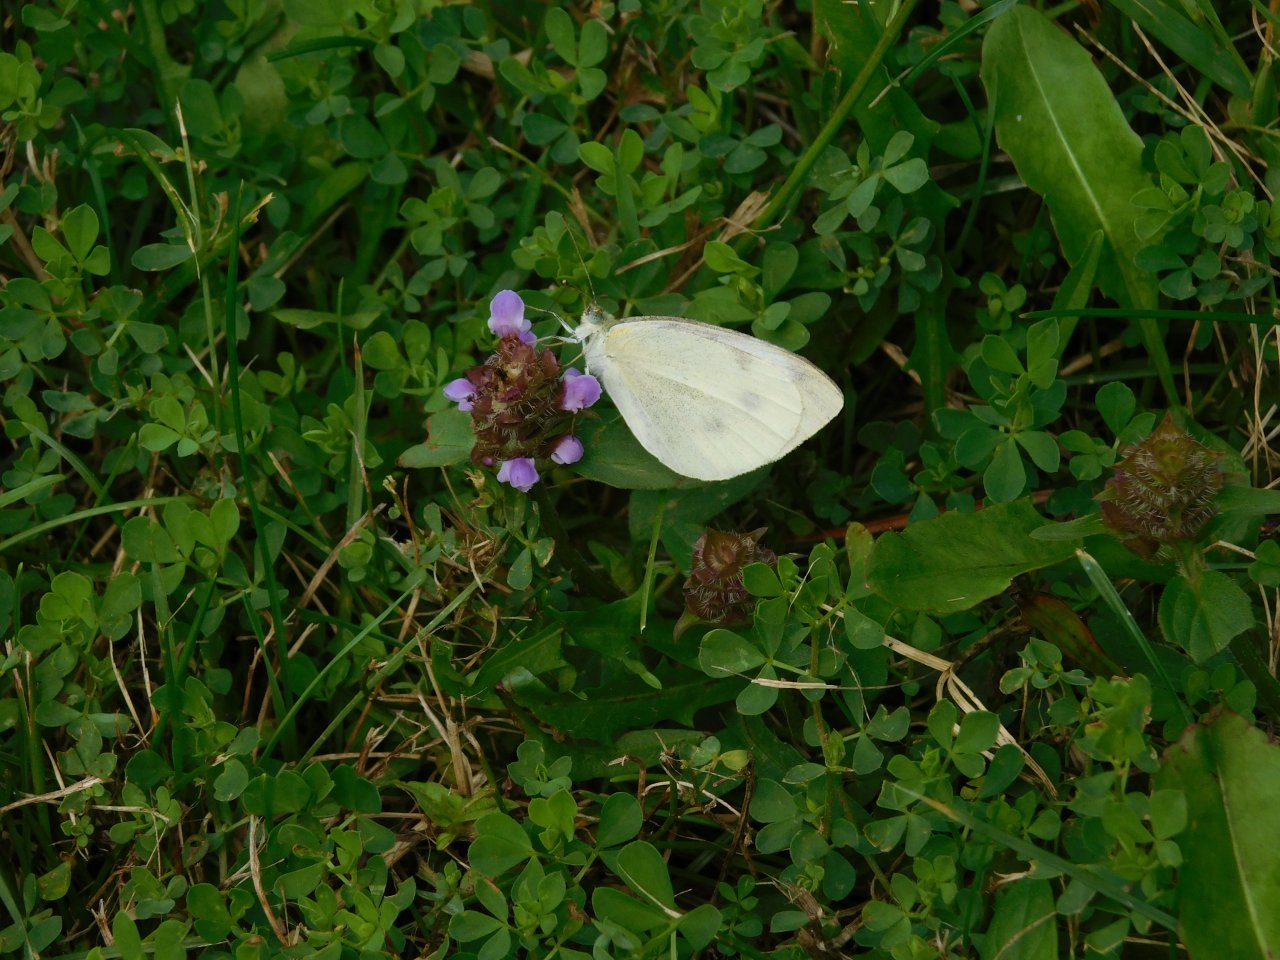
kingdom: Animalia
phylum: Arthropoda
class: Insecta
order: Lepidoptera
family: Pieridae
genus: Pieris
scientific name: Pieris rapae
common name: Cabbage White
